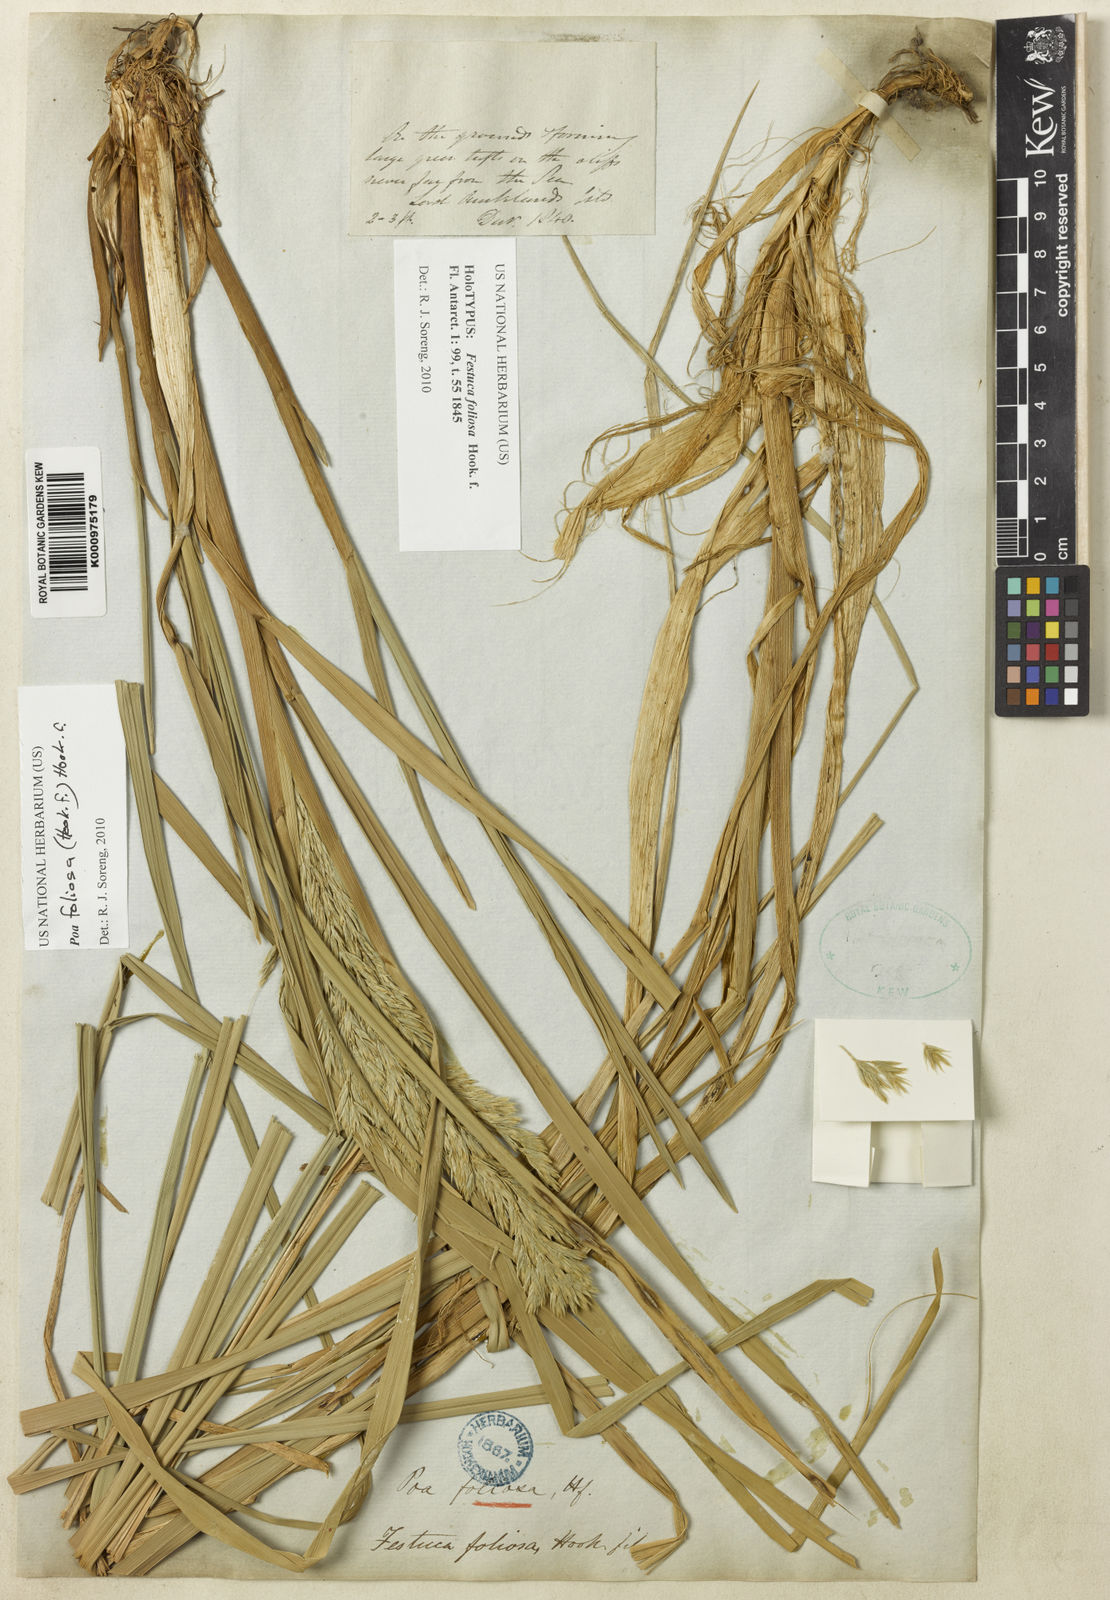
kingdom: Plantae
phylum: Tracheophyta
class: Liliopsida
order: Poales
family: Poaceae
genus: Poa
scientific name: Poa foliosa
